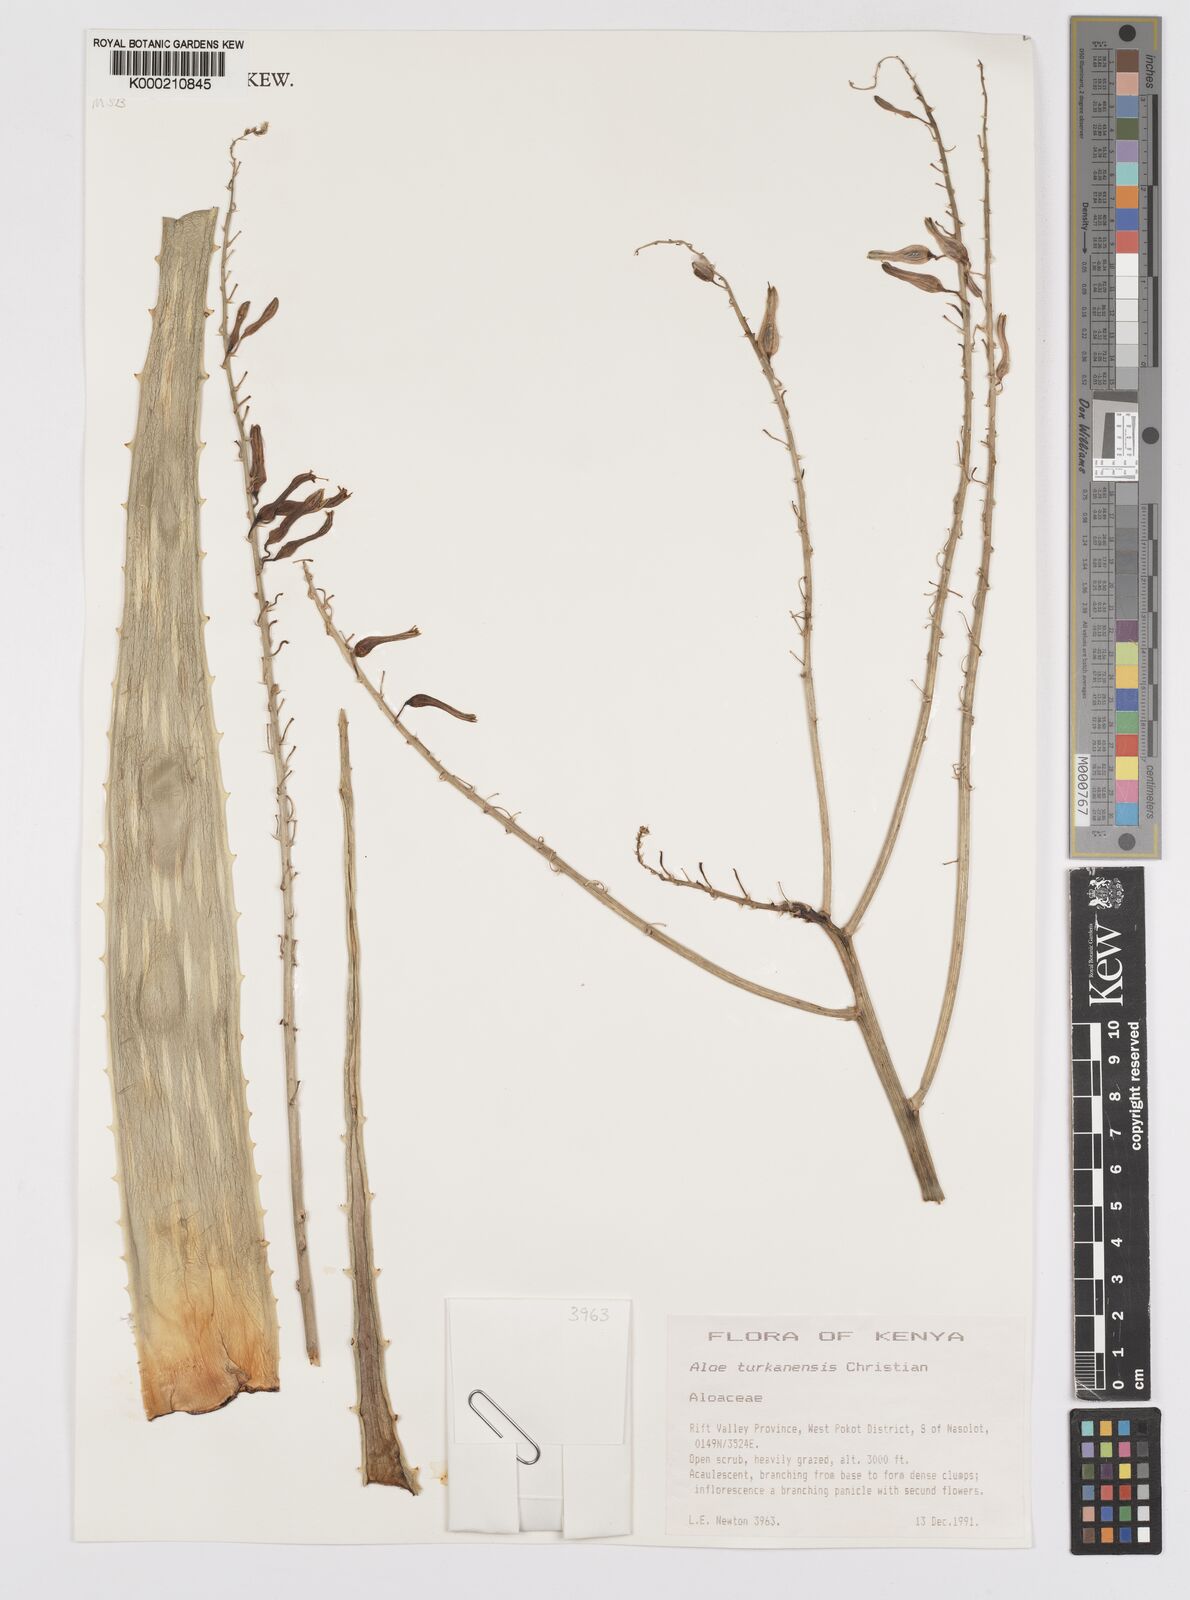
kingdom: Plantae
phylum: Tracheophyta
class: Liliopsida
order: Asparagales
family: Asphodelaceae
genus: Aloe
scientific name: Aloe turkanensis
